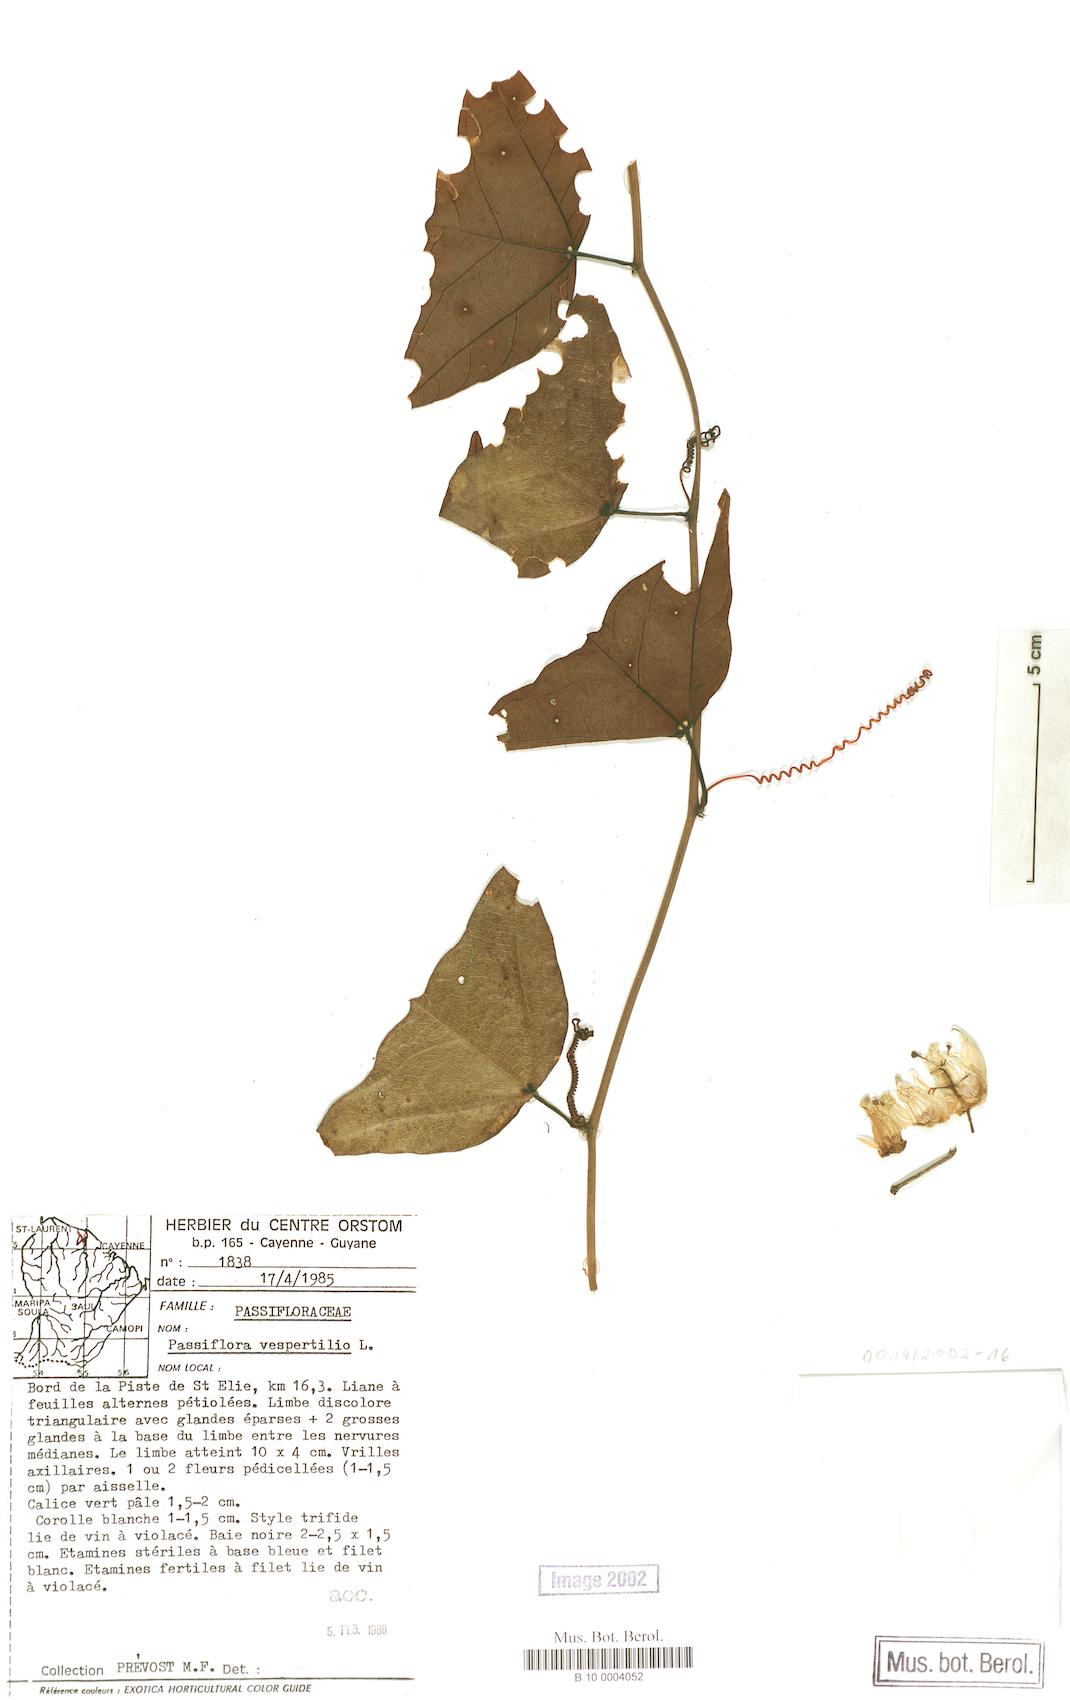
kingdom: Plantae
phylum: Tracheophyta
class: Magnoliopsida
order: Malpighiales
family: Passifloraceae
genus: Passiflora
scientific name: Passiflora vespertilio
